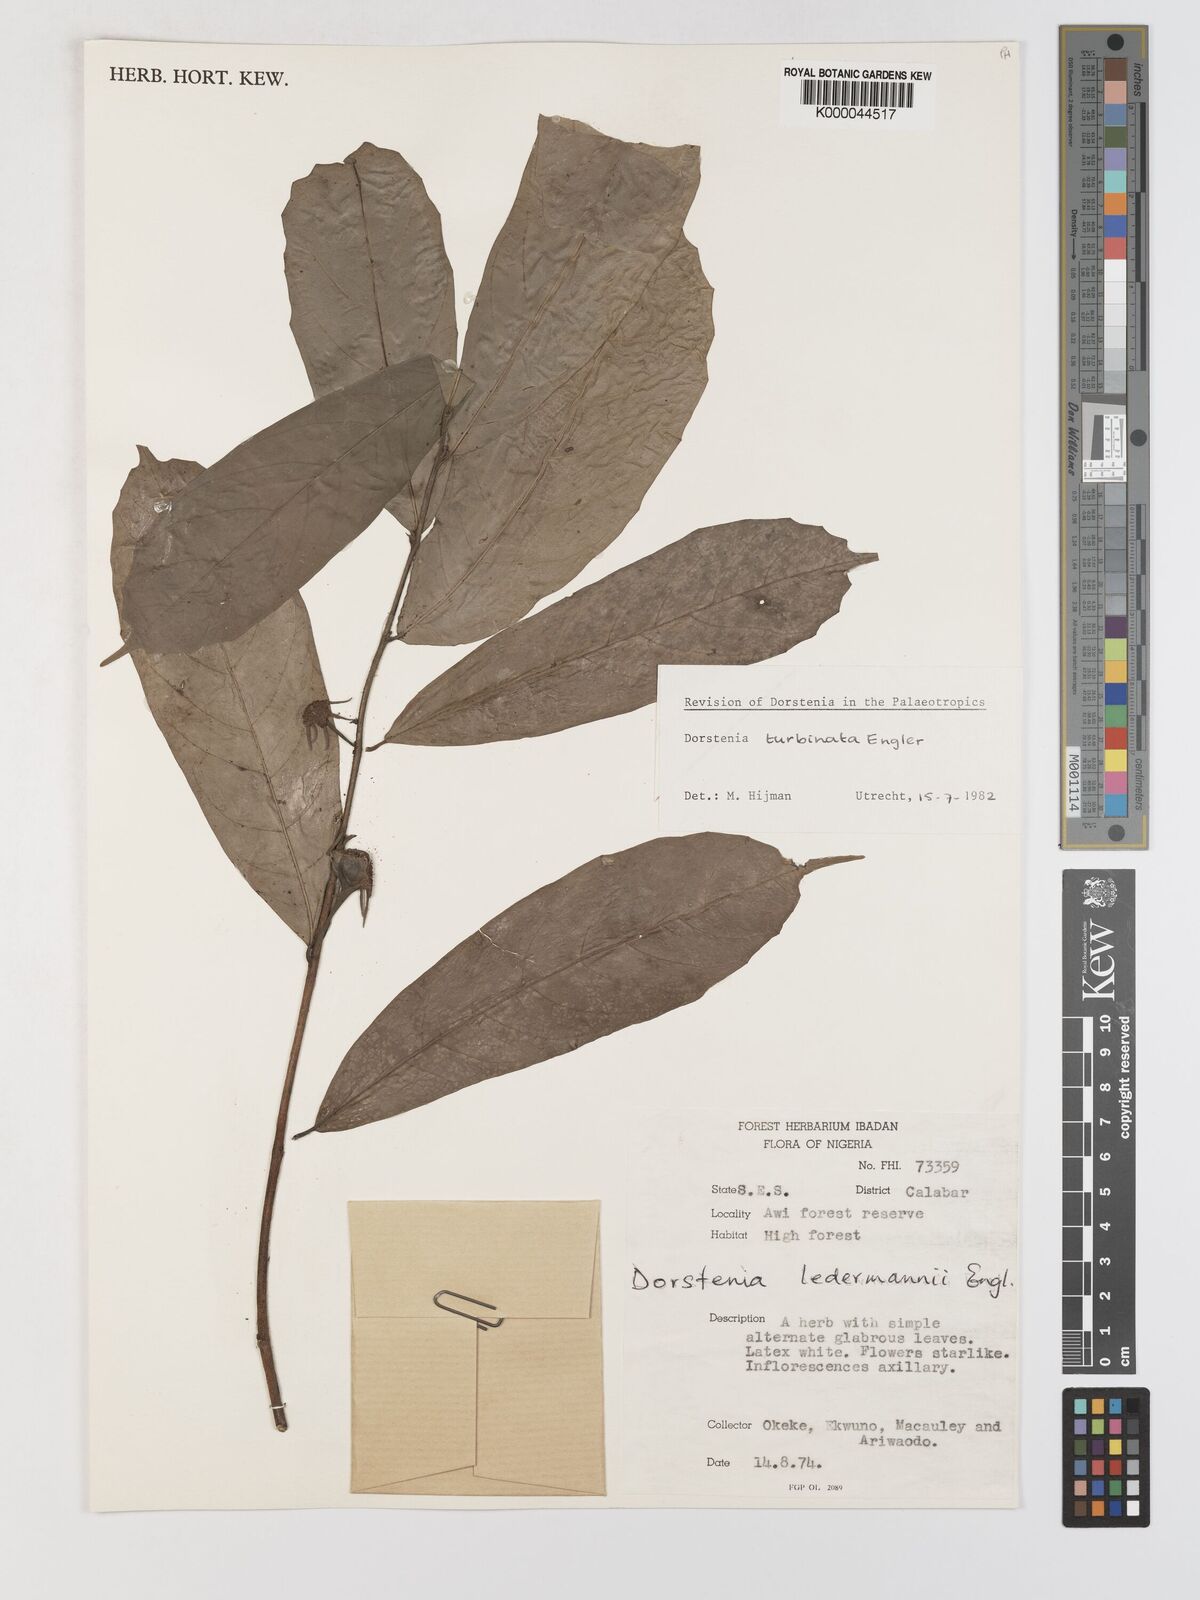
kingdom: Plantae
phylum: Tracheophyta
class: Magnoliopsida
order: Rosales
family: Moraceae
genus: Hijmania
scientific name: Hijmania turbinata
